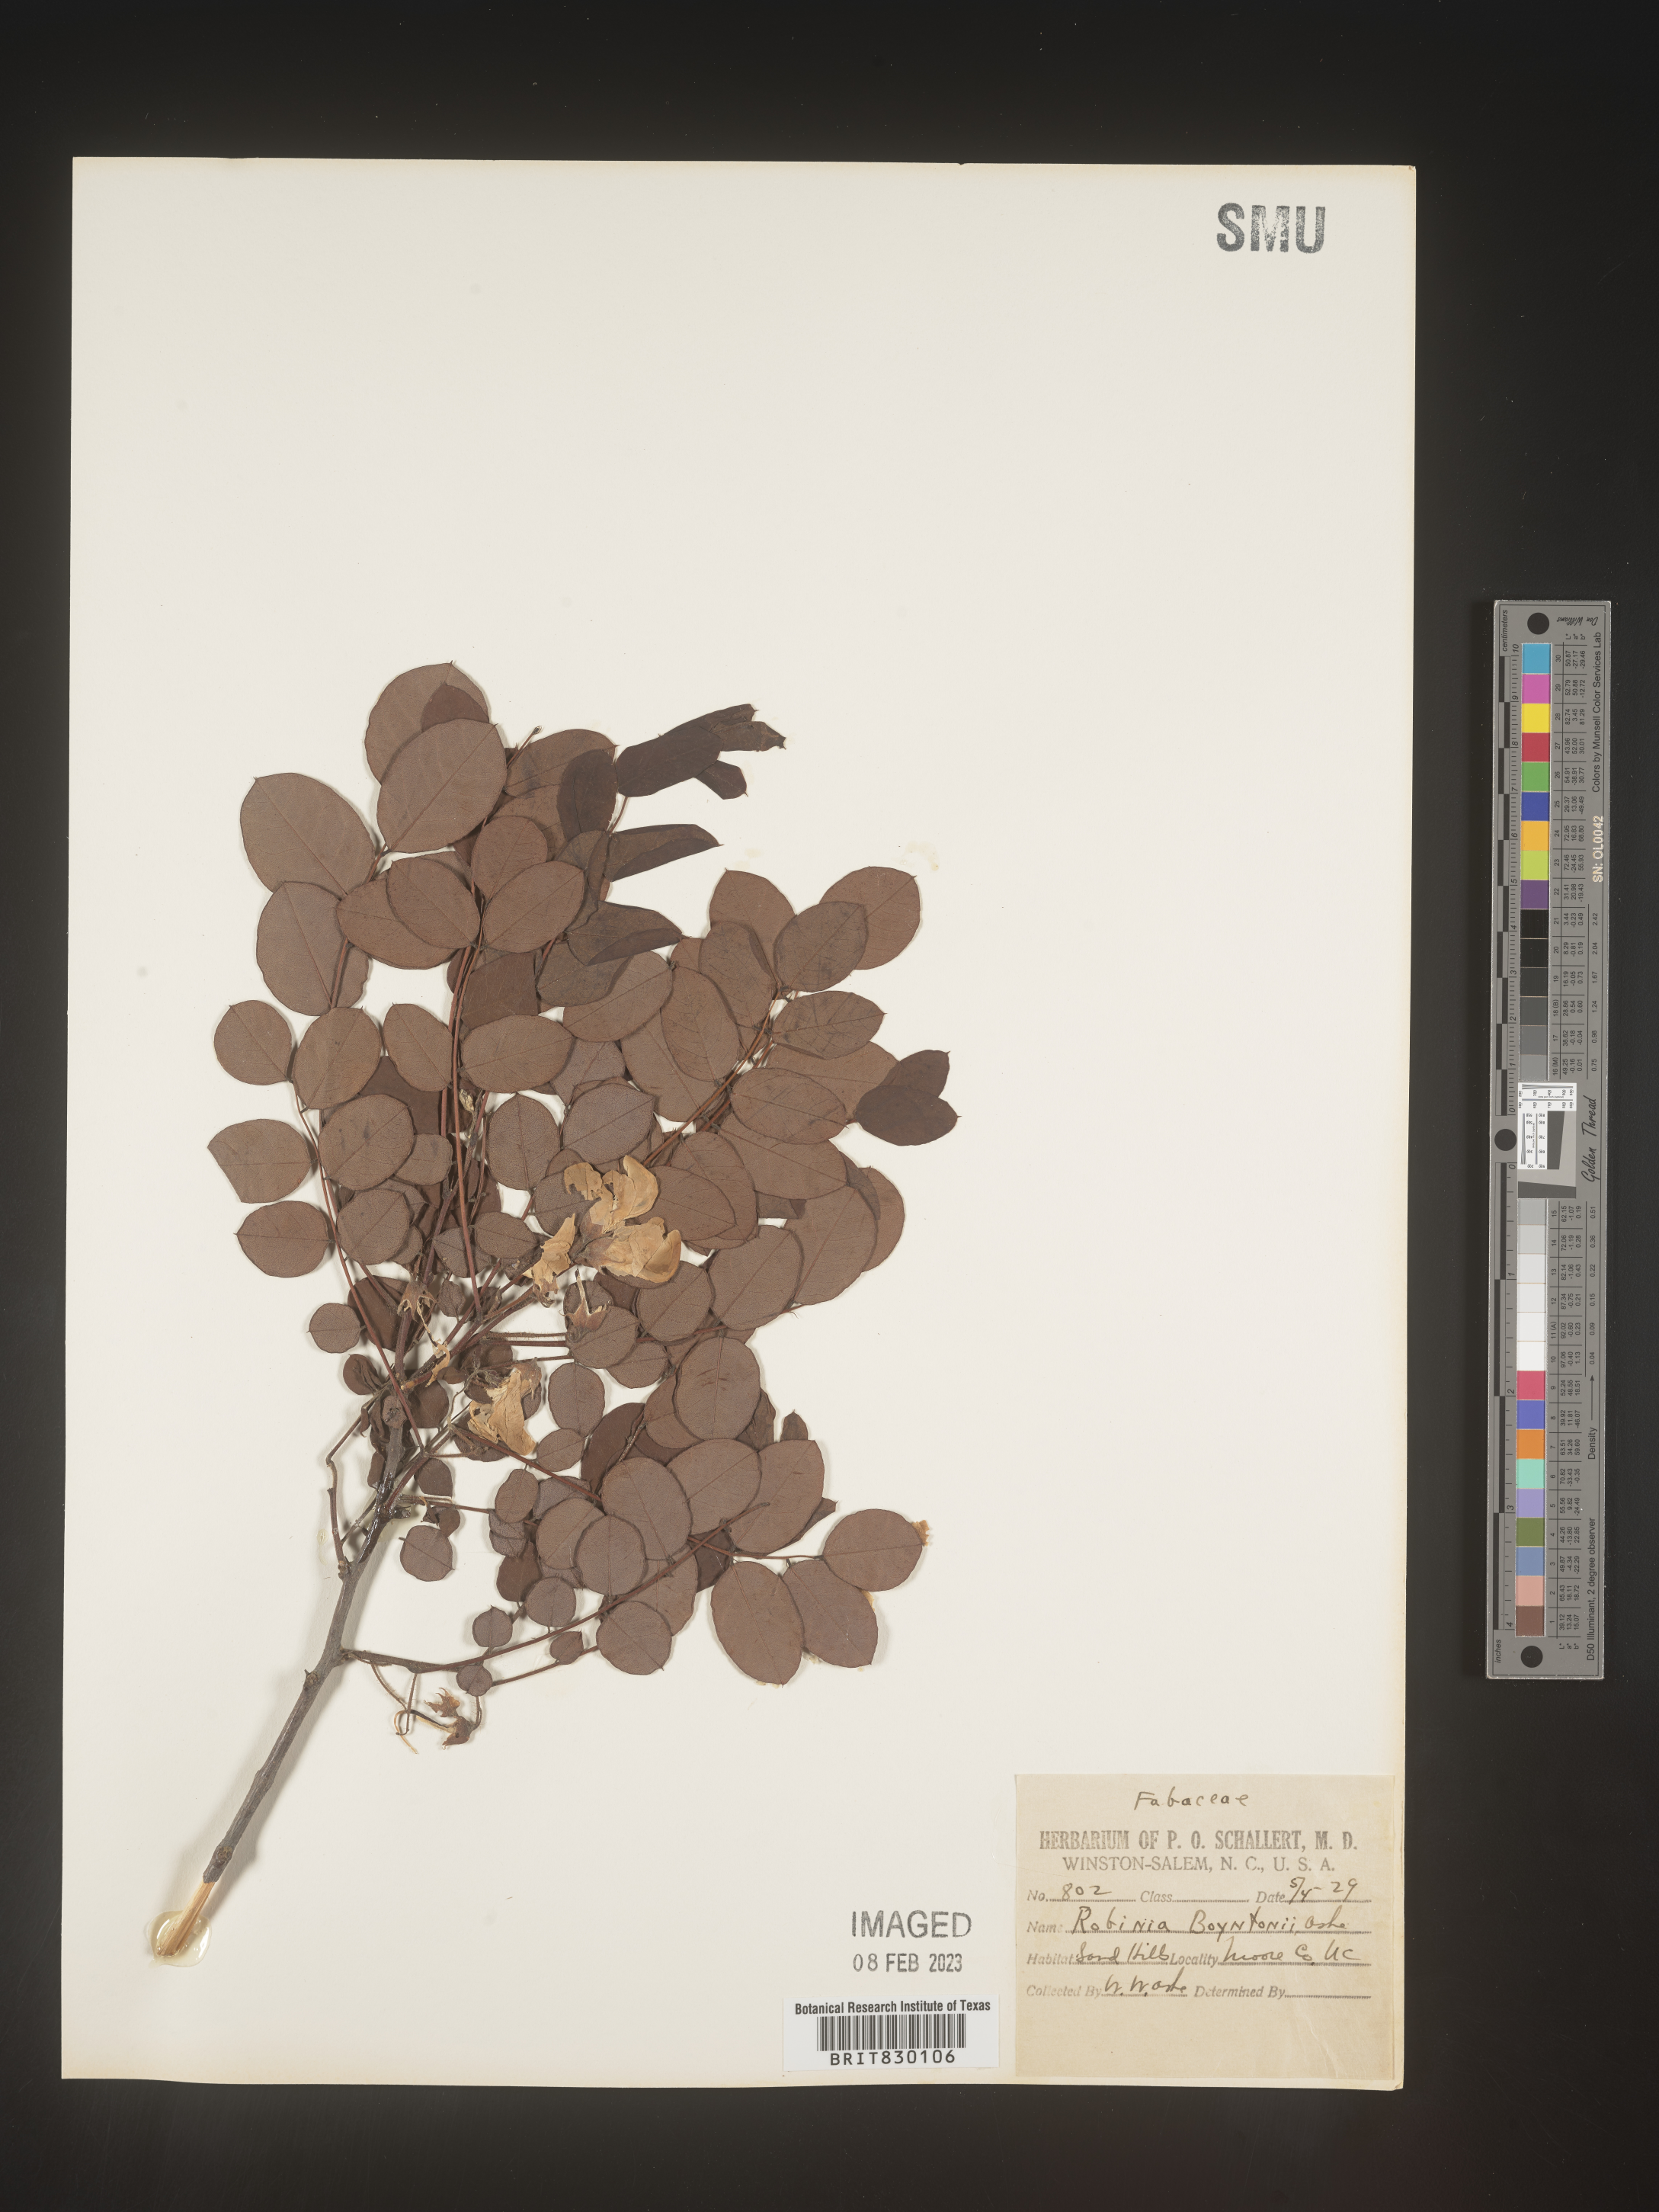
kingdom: Plantae
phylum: Tracheophyta
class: Magnoliopsida
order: Fabales
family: Fabaceae
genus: Robinia
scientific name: Robinia
